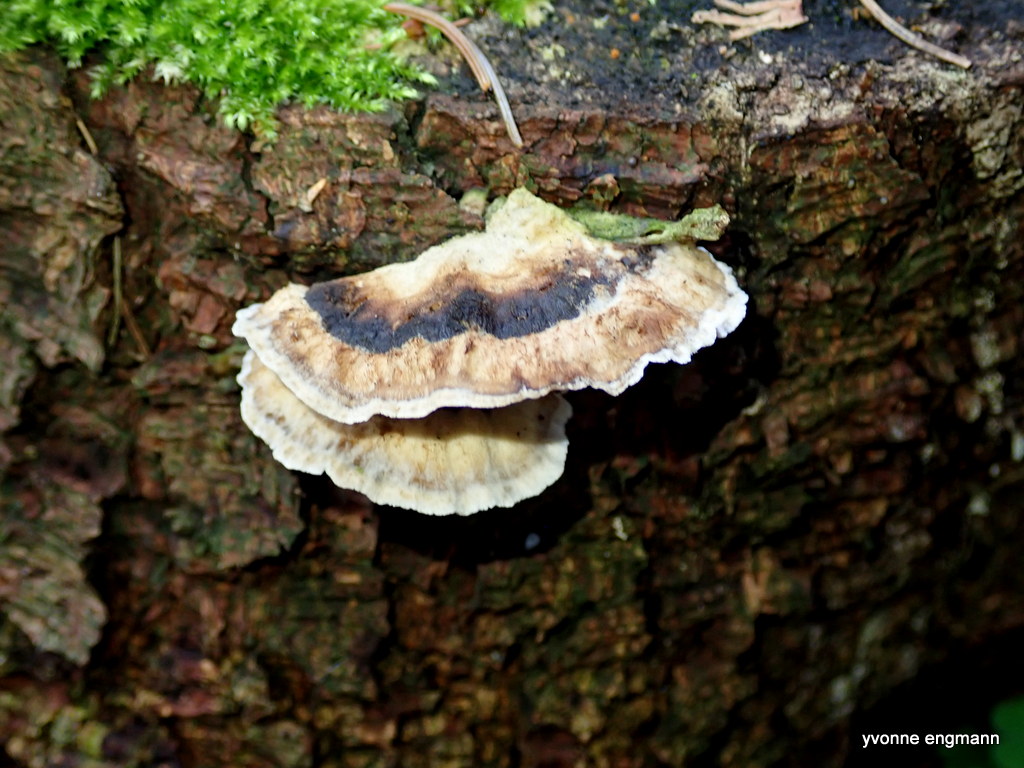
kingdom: Fungi
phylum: Basidiomycota
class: Agaricomycetes
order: Polyporales
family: Phanerochaetaceae
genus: Bjerkandera
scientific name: Bjerkandera adusta
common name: sveden sodporesvamp
